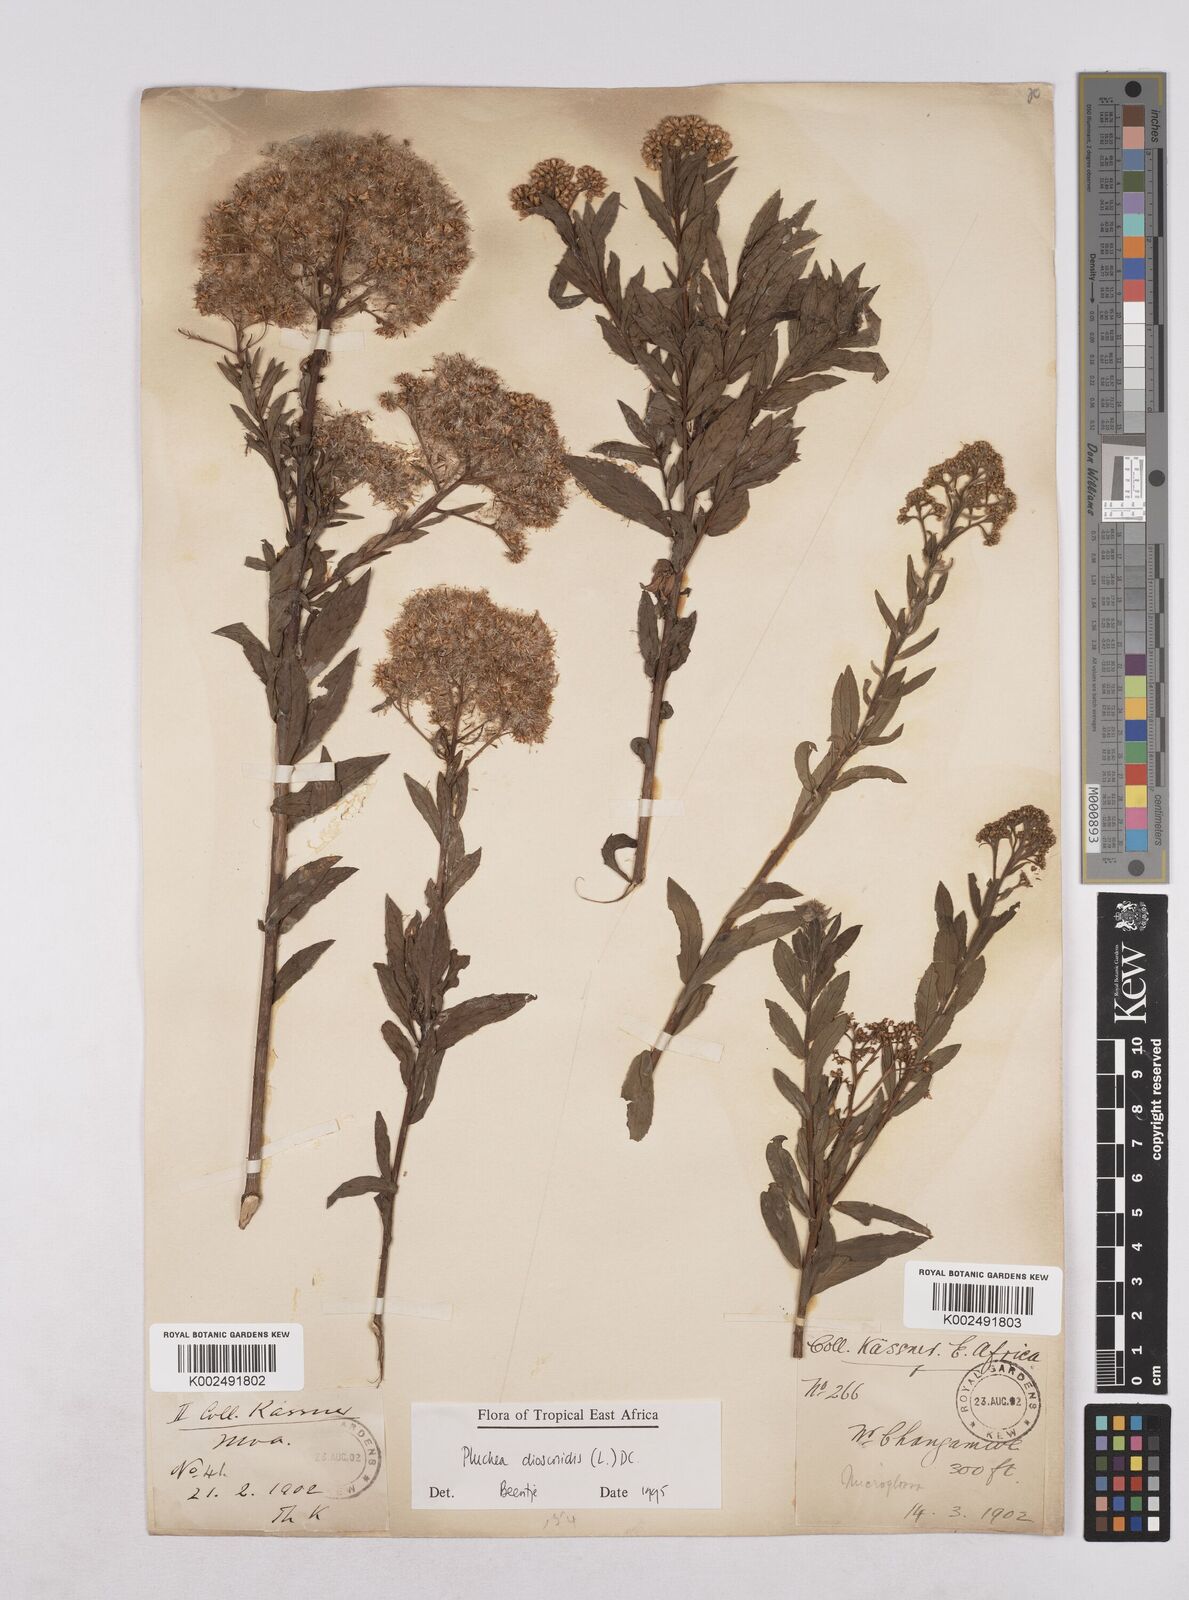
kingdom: Plantae
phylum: Tracheophyta
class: Magnoliopsida
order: Asterales
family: Asteraceae
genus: Pluchea
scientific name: Pluchea dioscoridis
